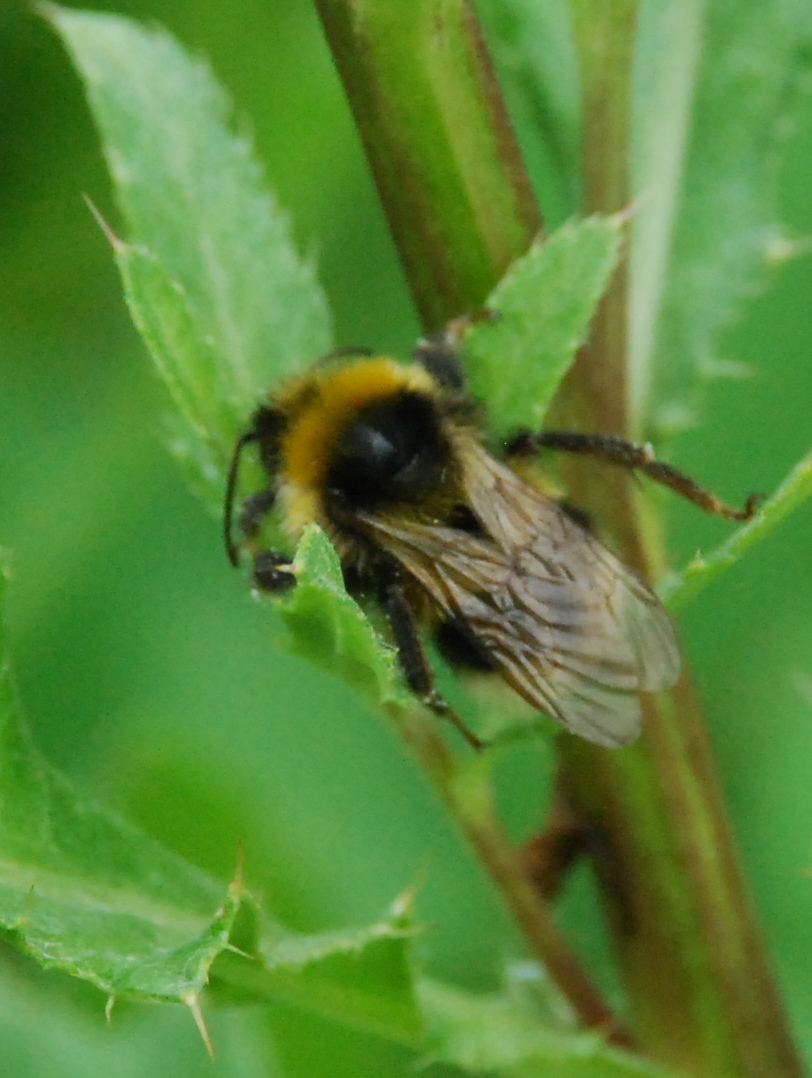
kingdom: Animalia
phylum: Arthropoda
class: Insecta
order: Hymenoptera
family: Apidae
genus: Bombus
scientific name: Bombus hortorum
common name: Garden bumblebee
